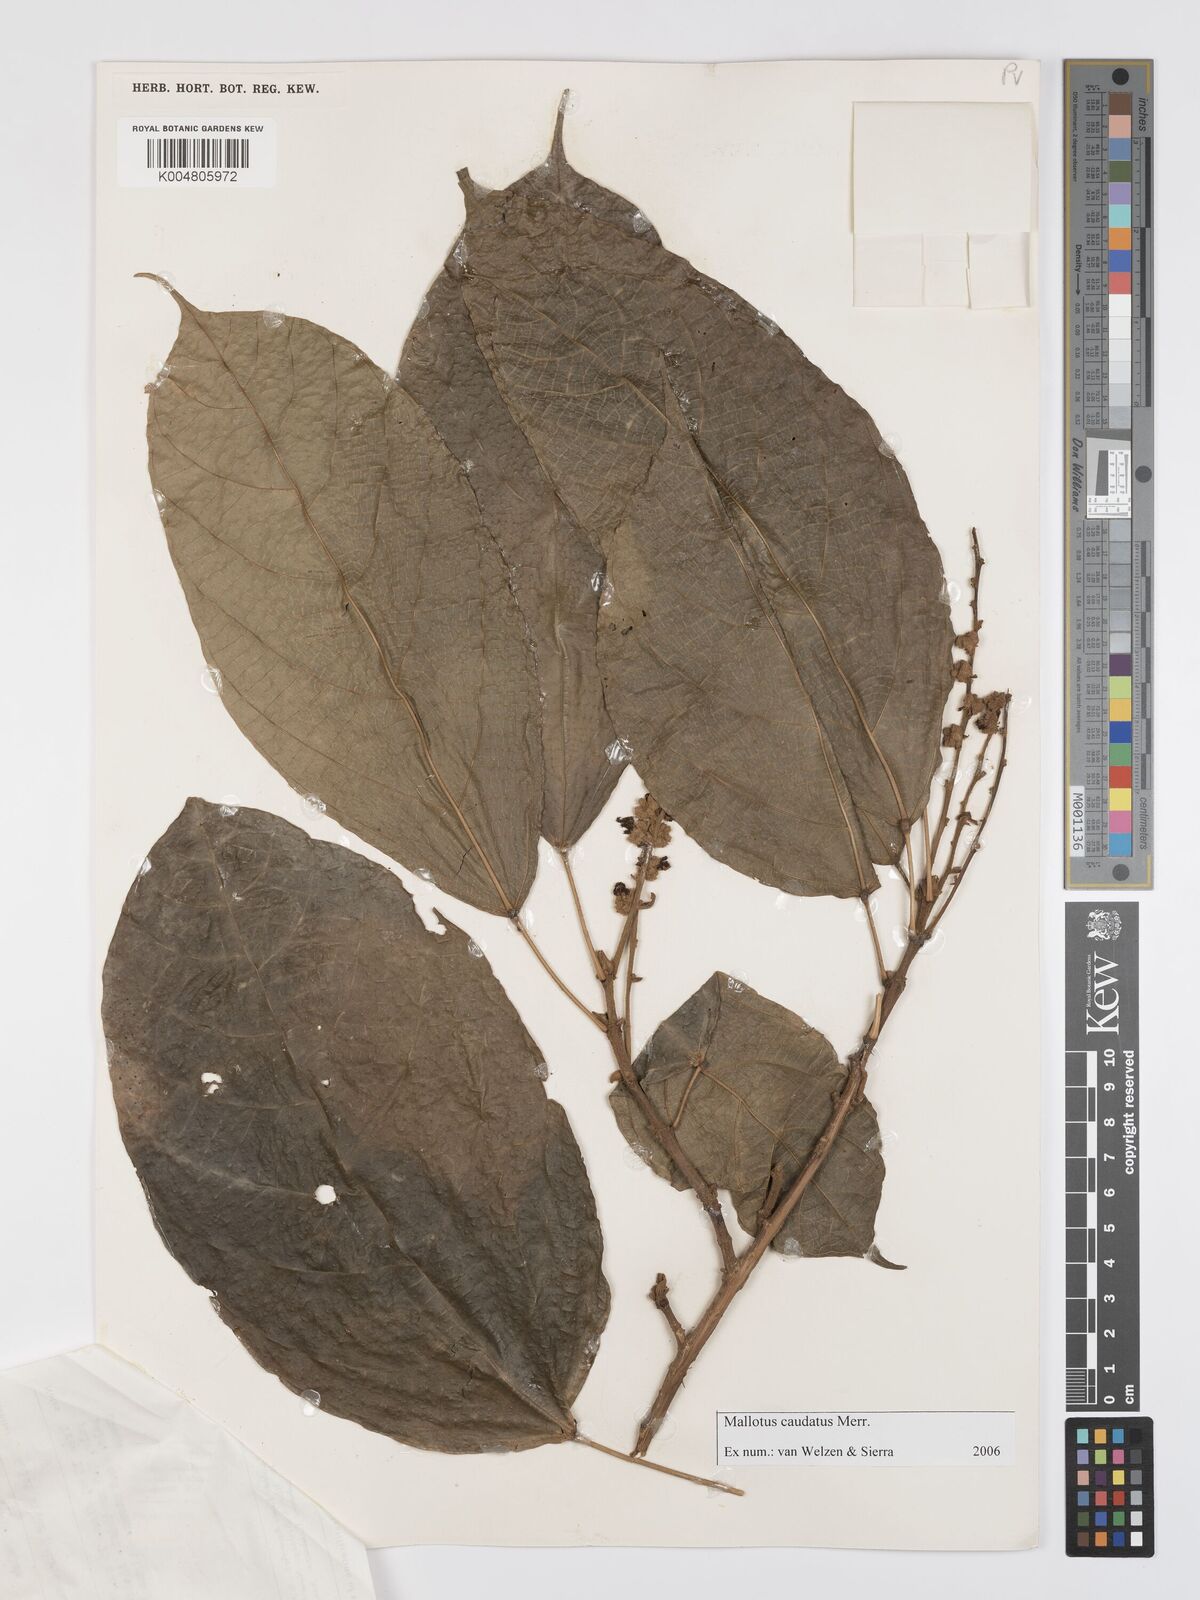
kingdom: Plantae
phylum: Tracheophyta
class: Magnoliopsida
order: Malpighiales
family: Euphorbiaceae
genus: Mallotus
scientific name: Mallotus caudatus
